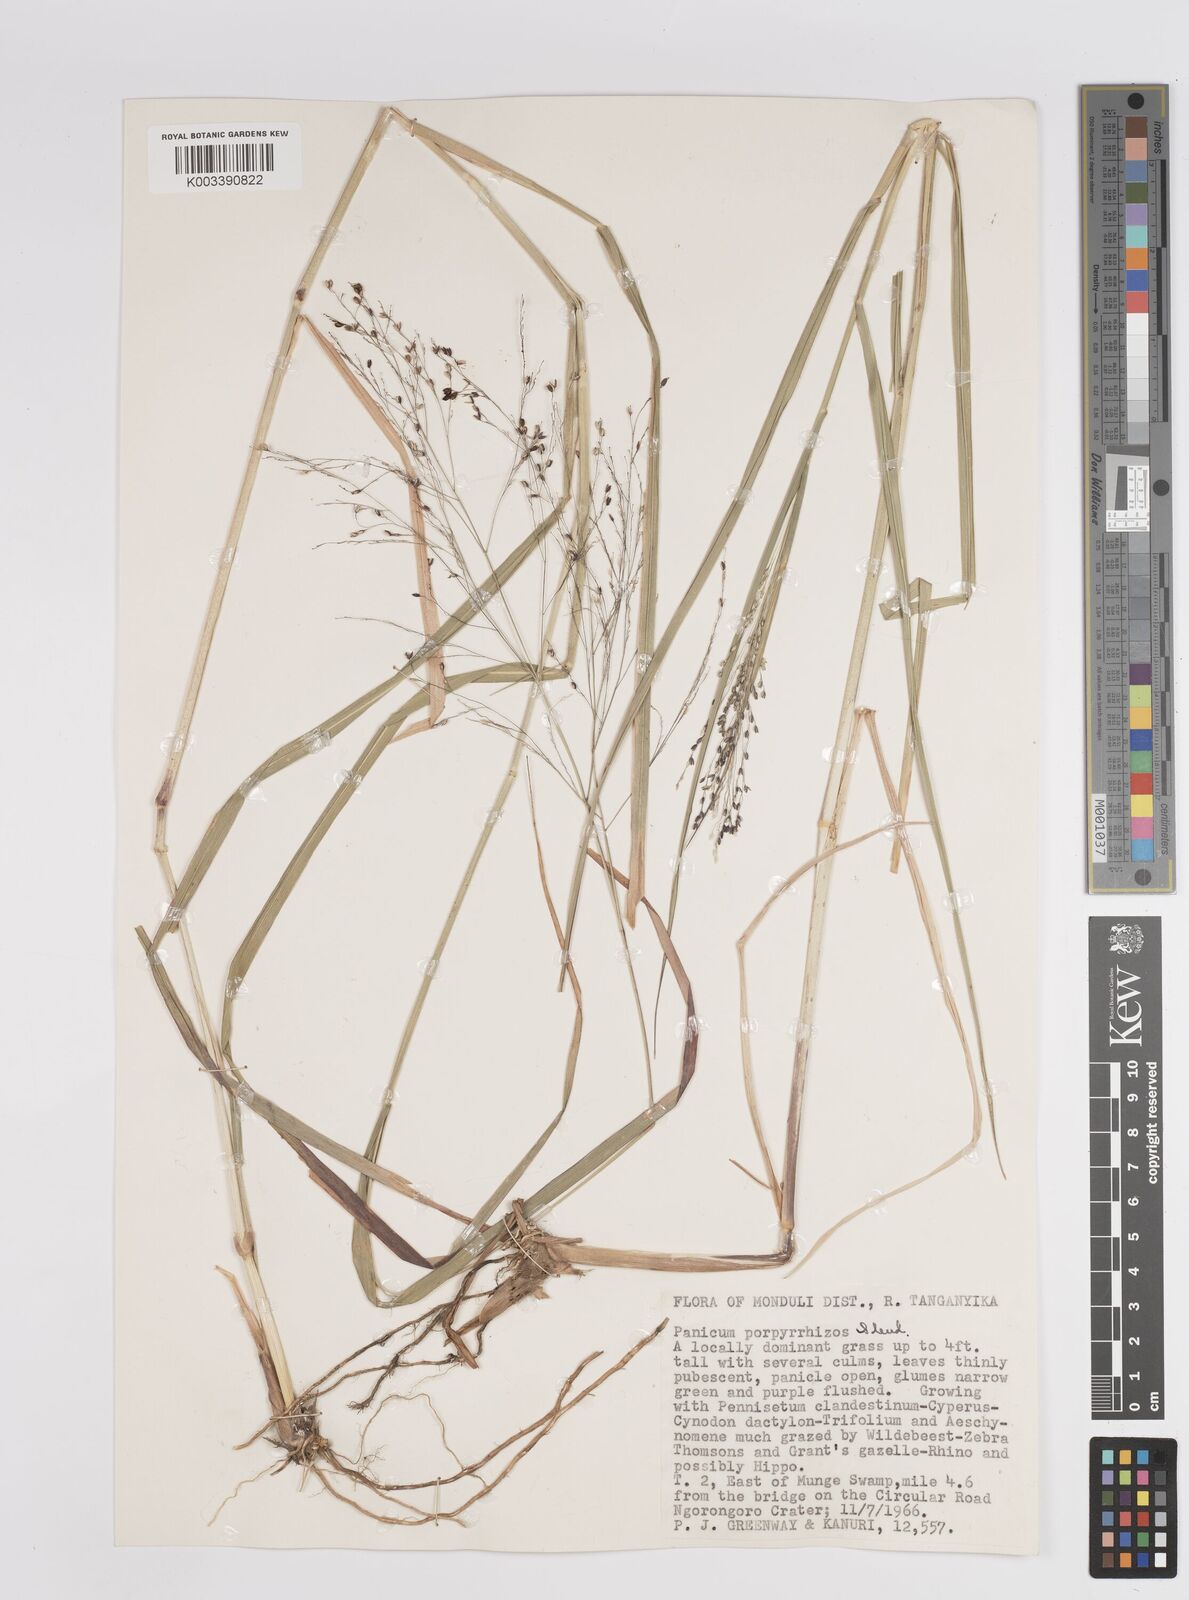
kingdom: Plantae
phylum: Tracheophyta
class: Liliopsida
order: Poales
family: Poaceae
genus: Panicum
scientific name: Panicum coloratum
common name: Kleingrass
